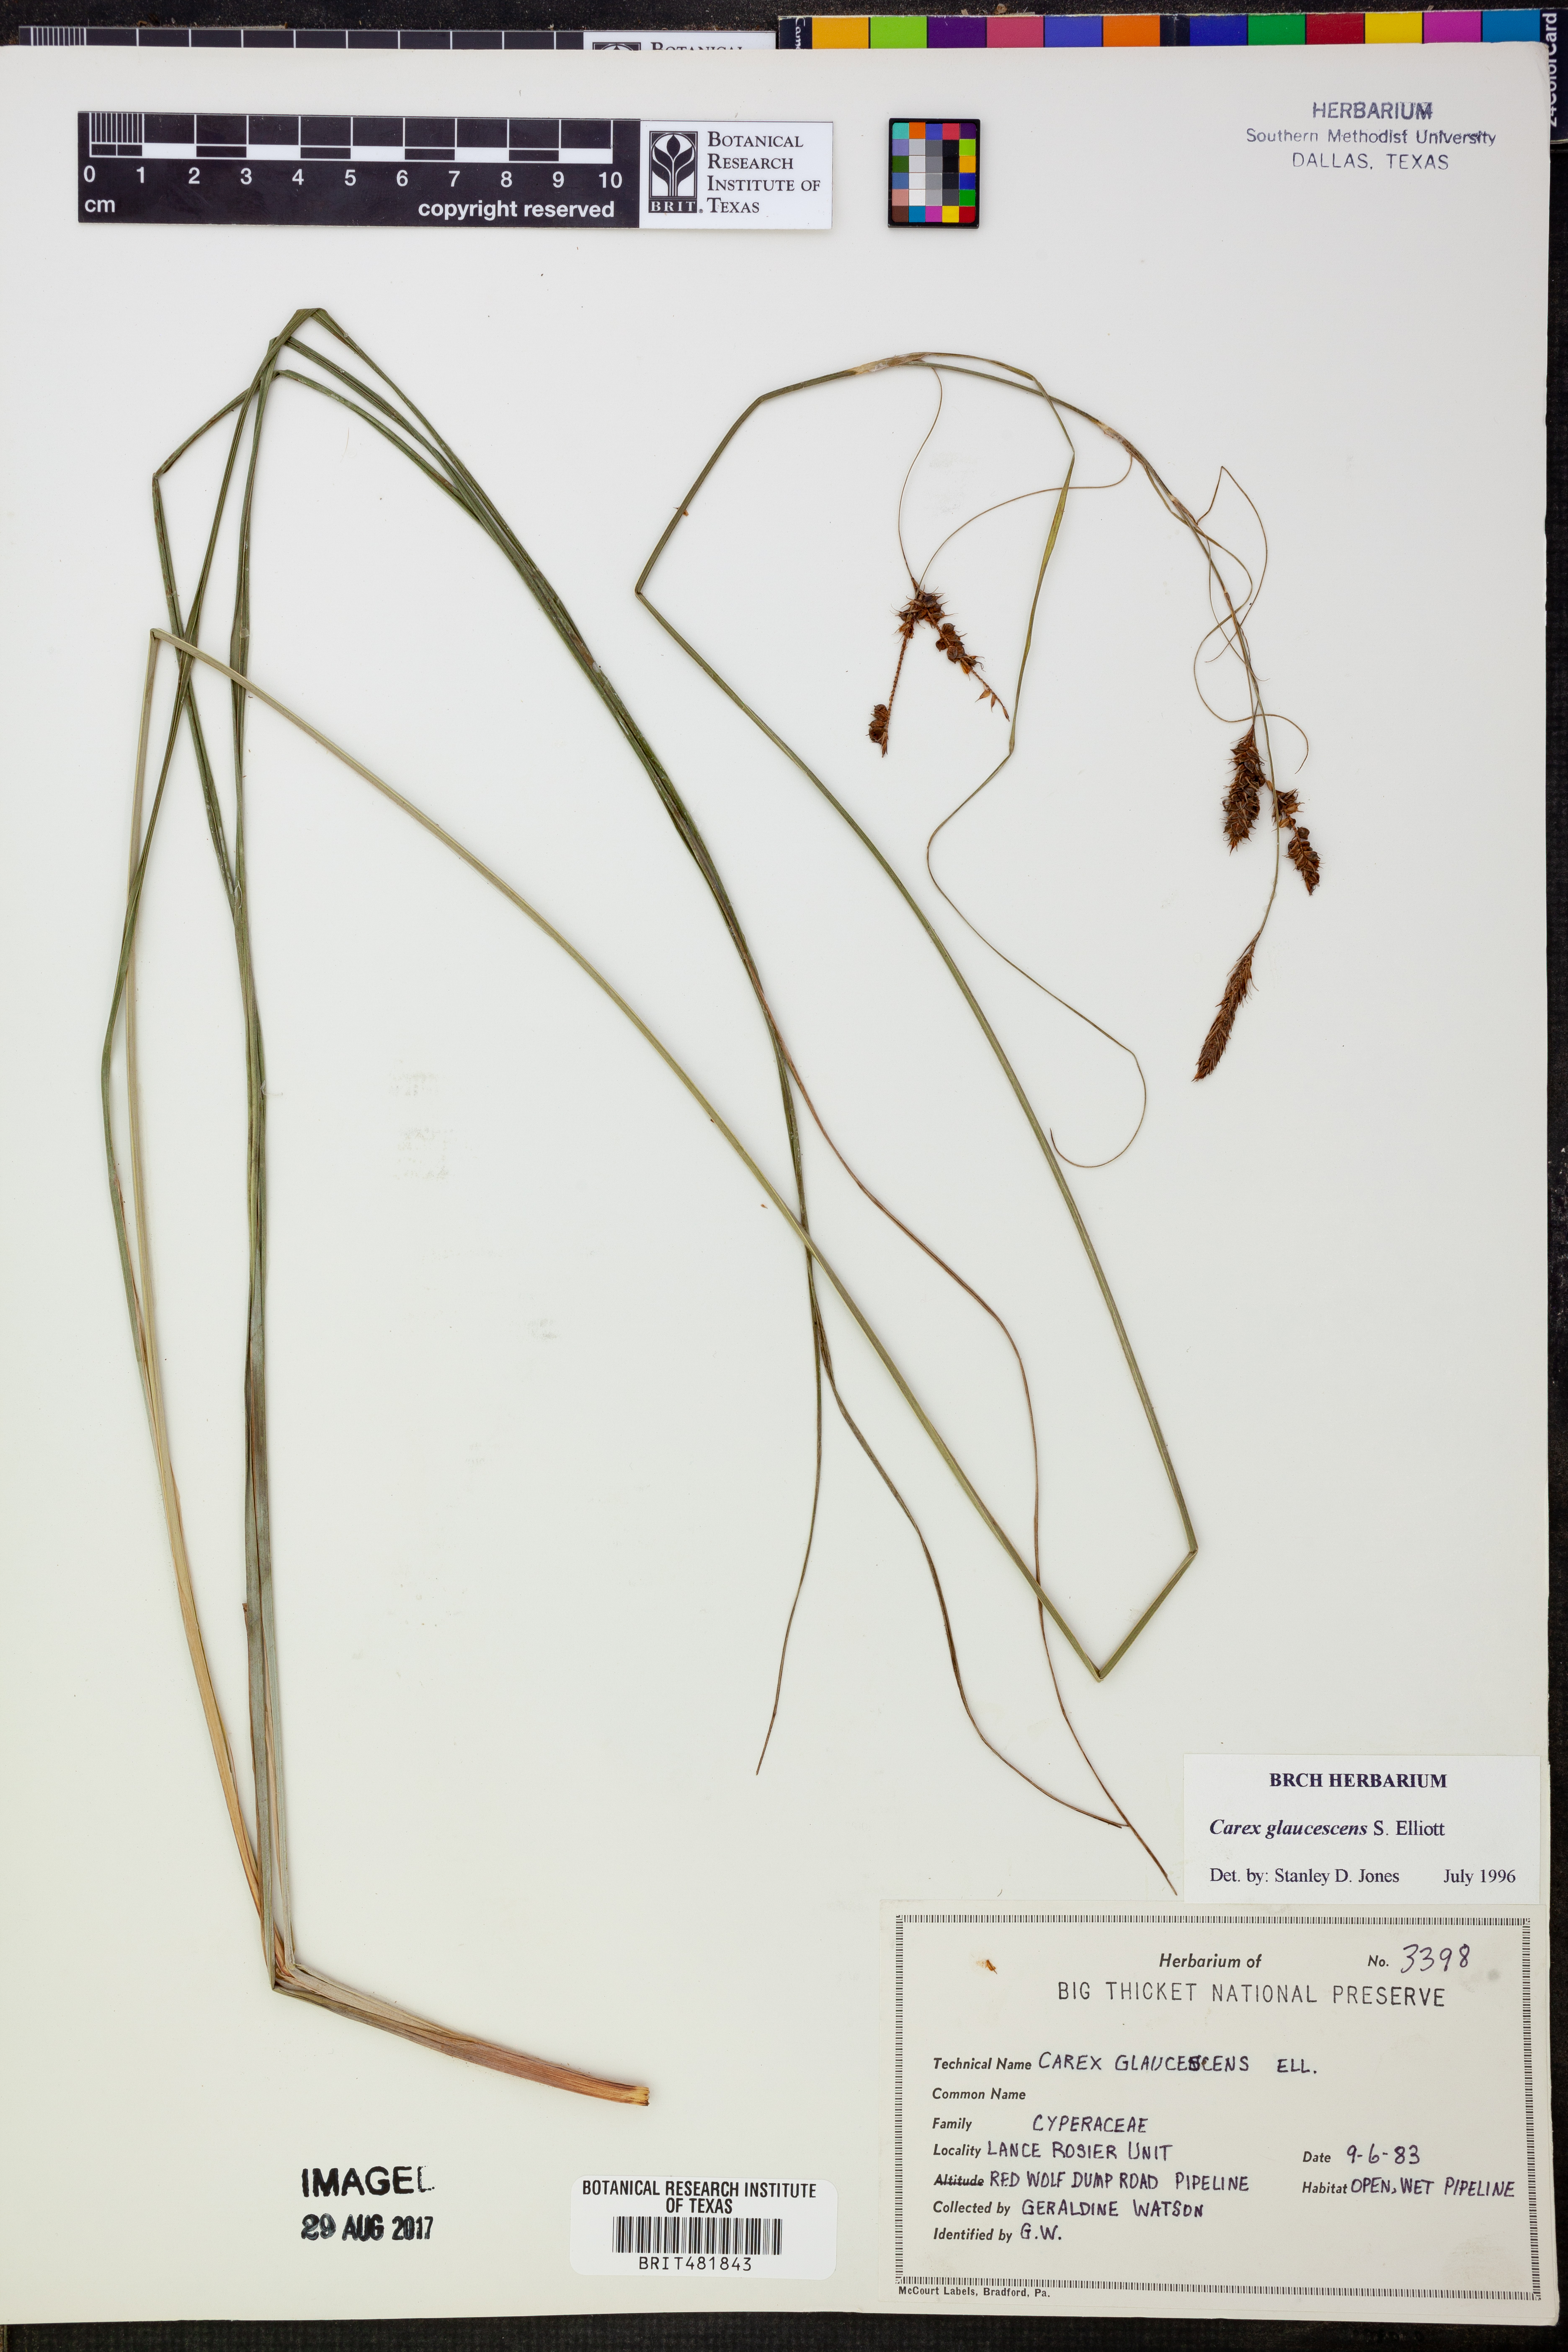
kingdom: Plantae
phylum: Tracheophyta
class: Liliopsida
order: Poales
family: Cyperaceae
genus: Carex
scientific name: Carex glaucescens
